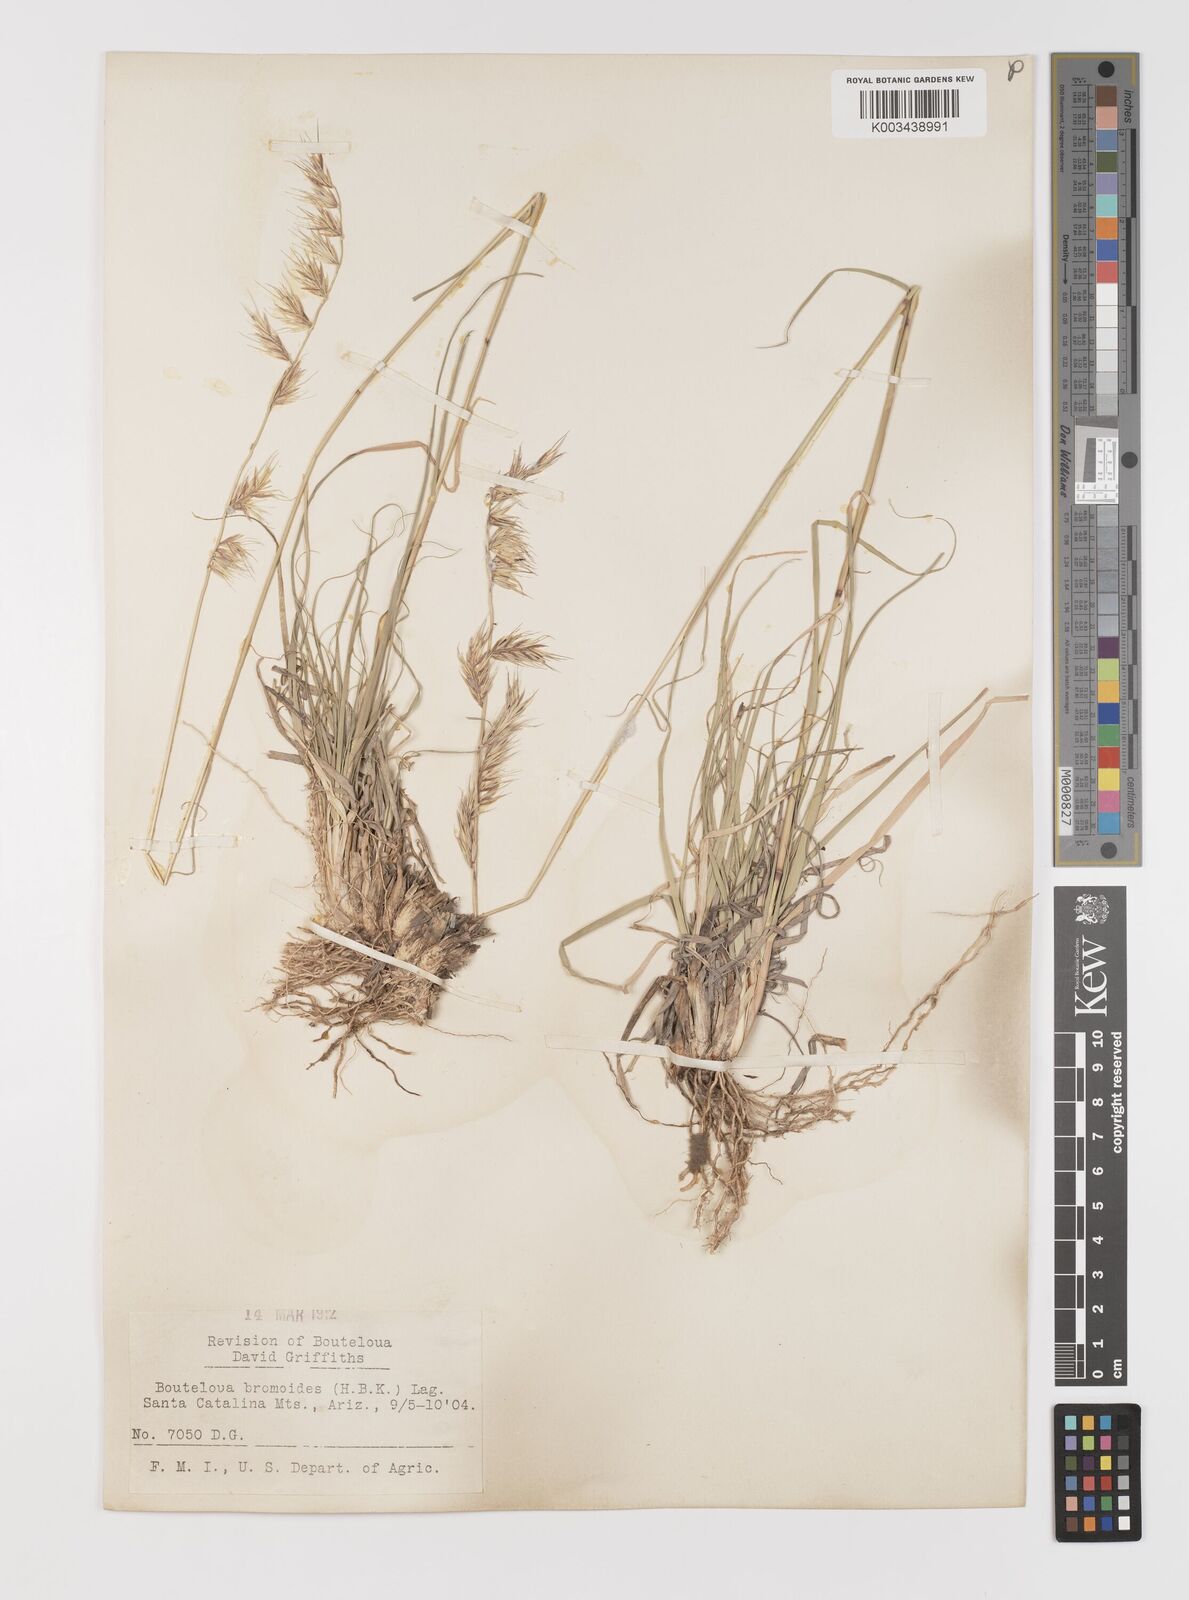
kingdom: Plantae
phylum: Tracheophyta
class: Liliopsida
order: Poales
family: Poaceae
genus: Bouteloua
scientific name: Bouteloua repens
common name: Slender grama
